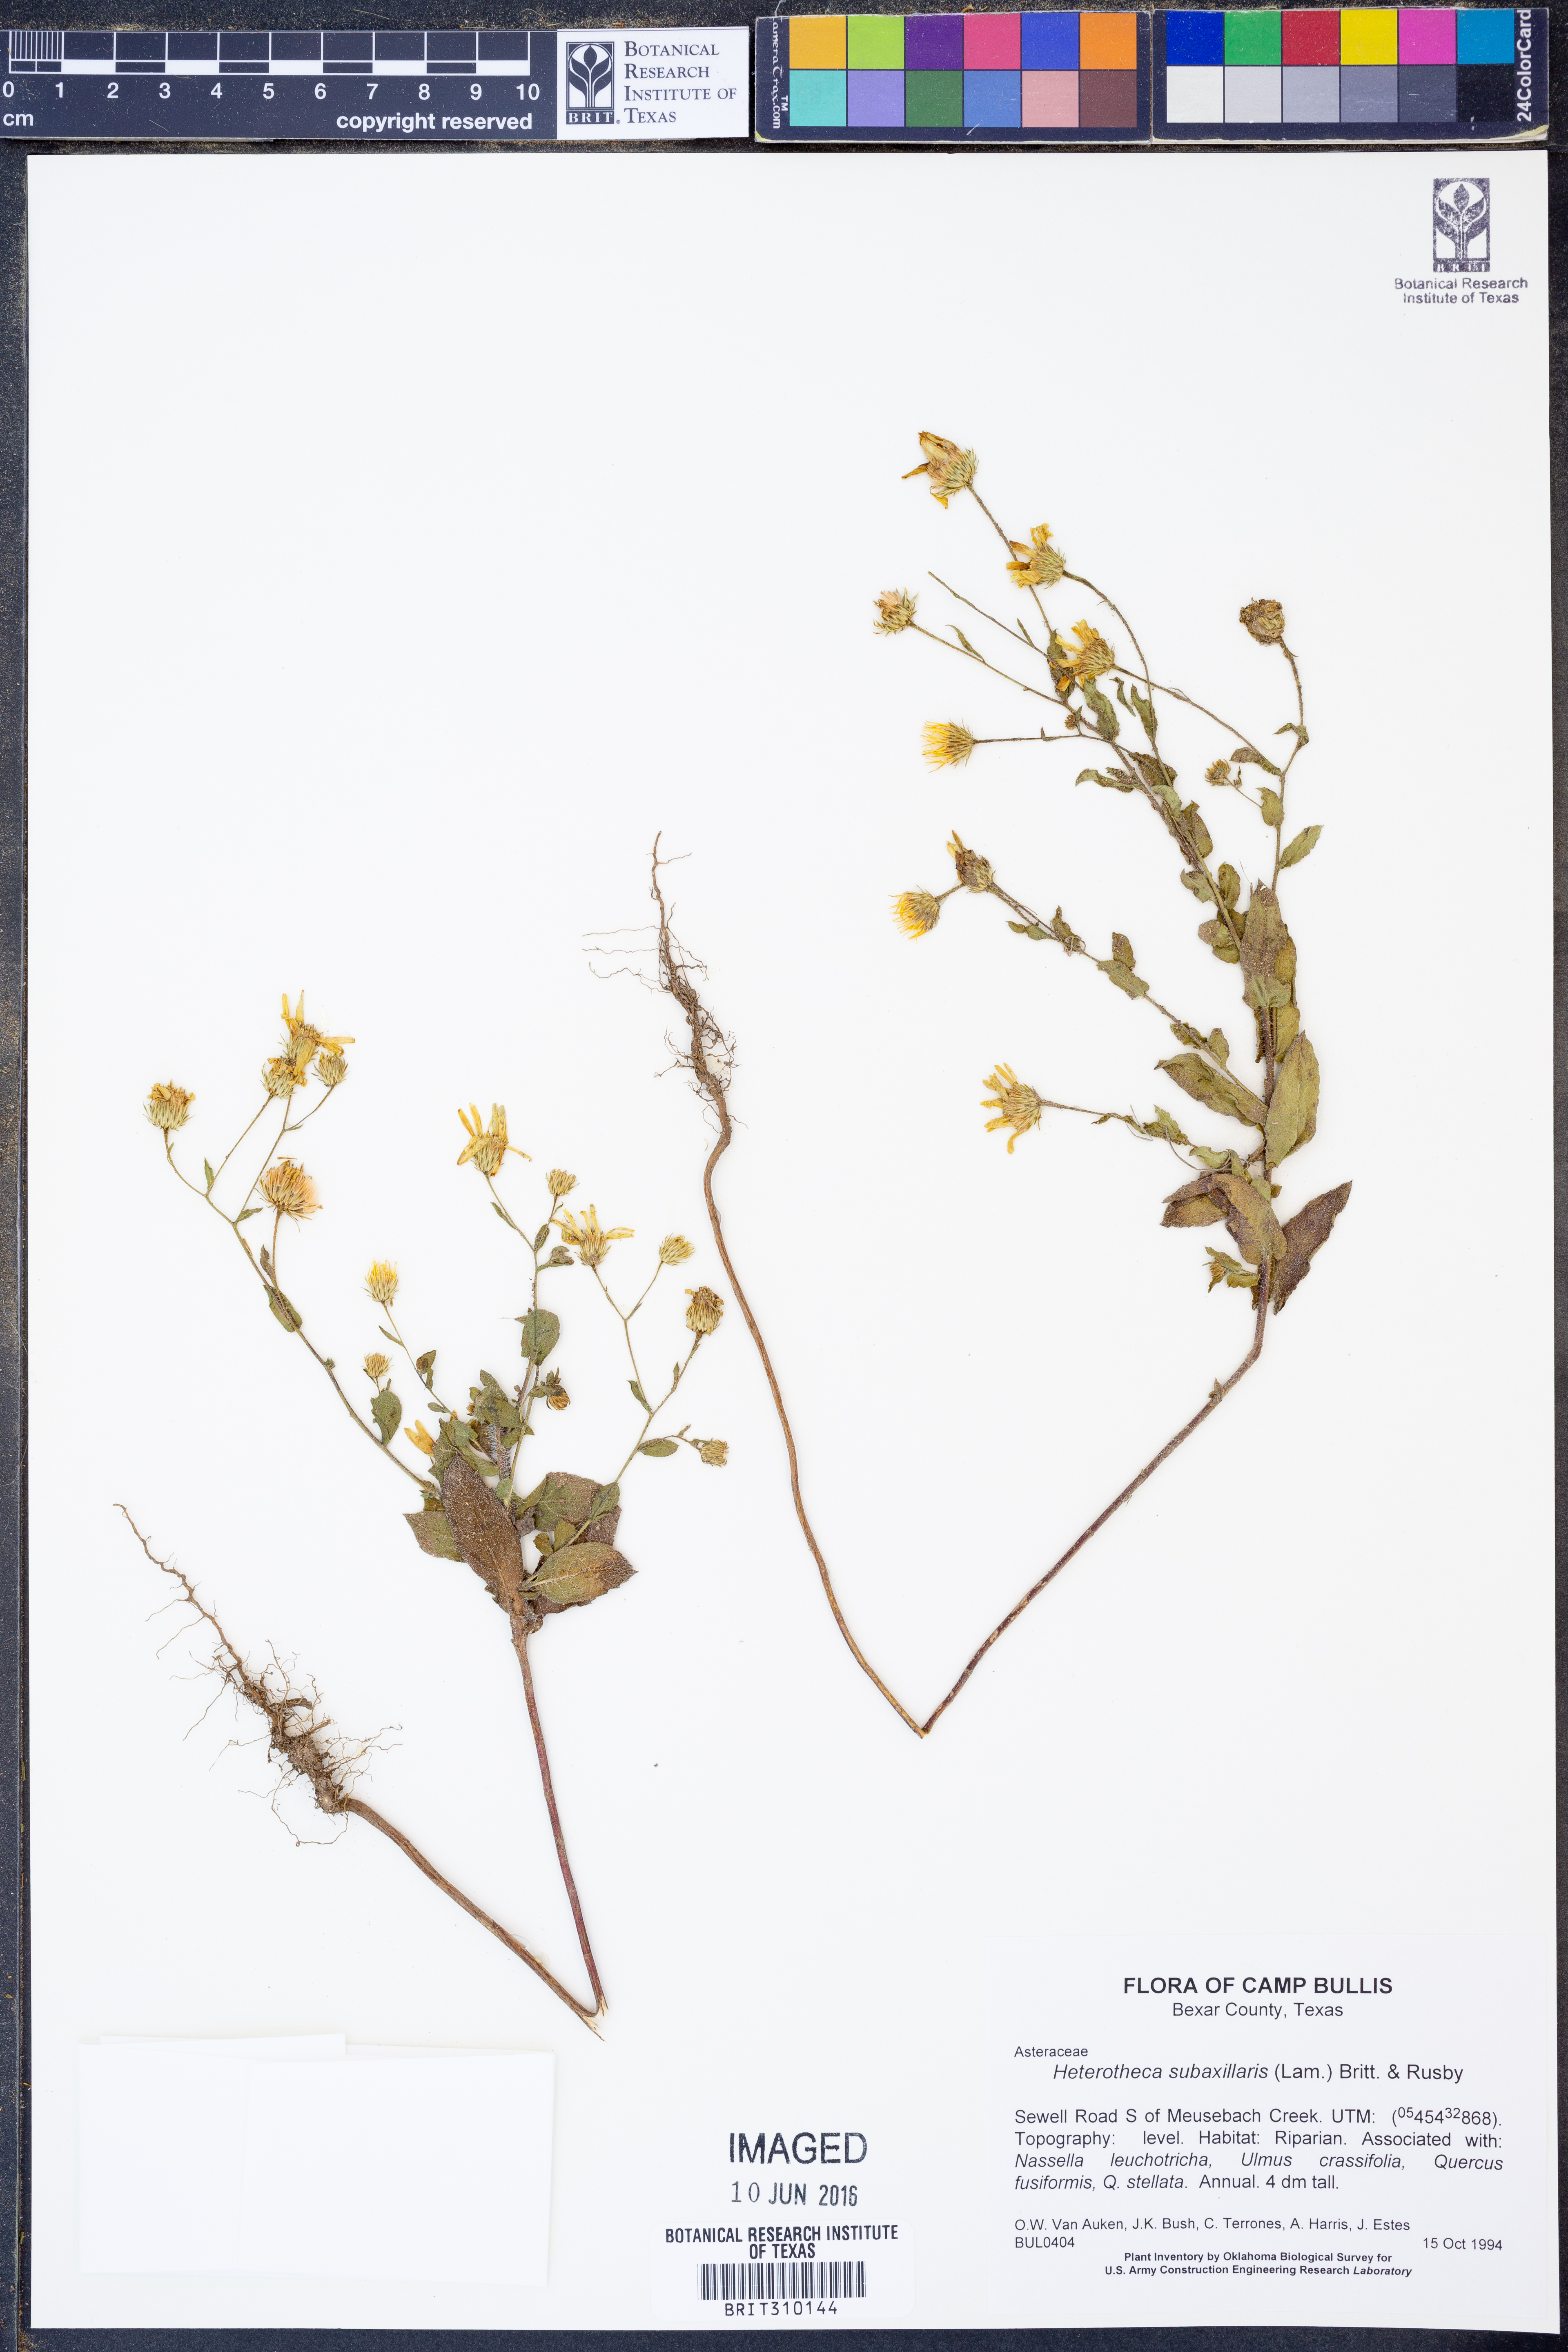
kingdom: Plantae
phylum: Tracheophyta
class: Magnoliopsida
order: Asterales
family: Asteraceae
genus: Heterotheca
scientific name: Heterotheca subaxillaris
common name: Camphorweed
